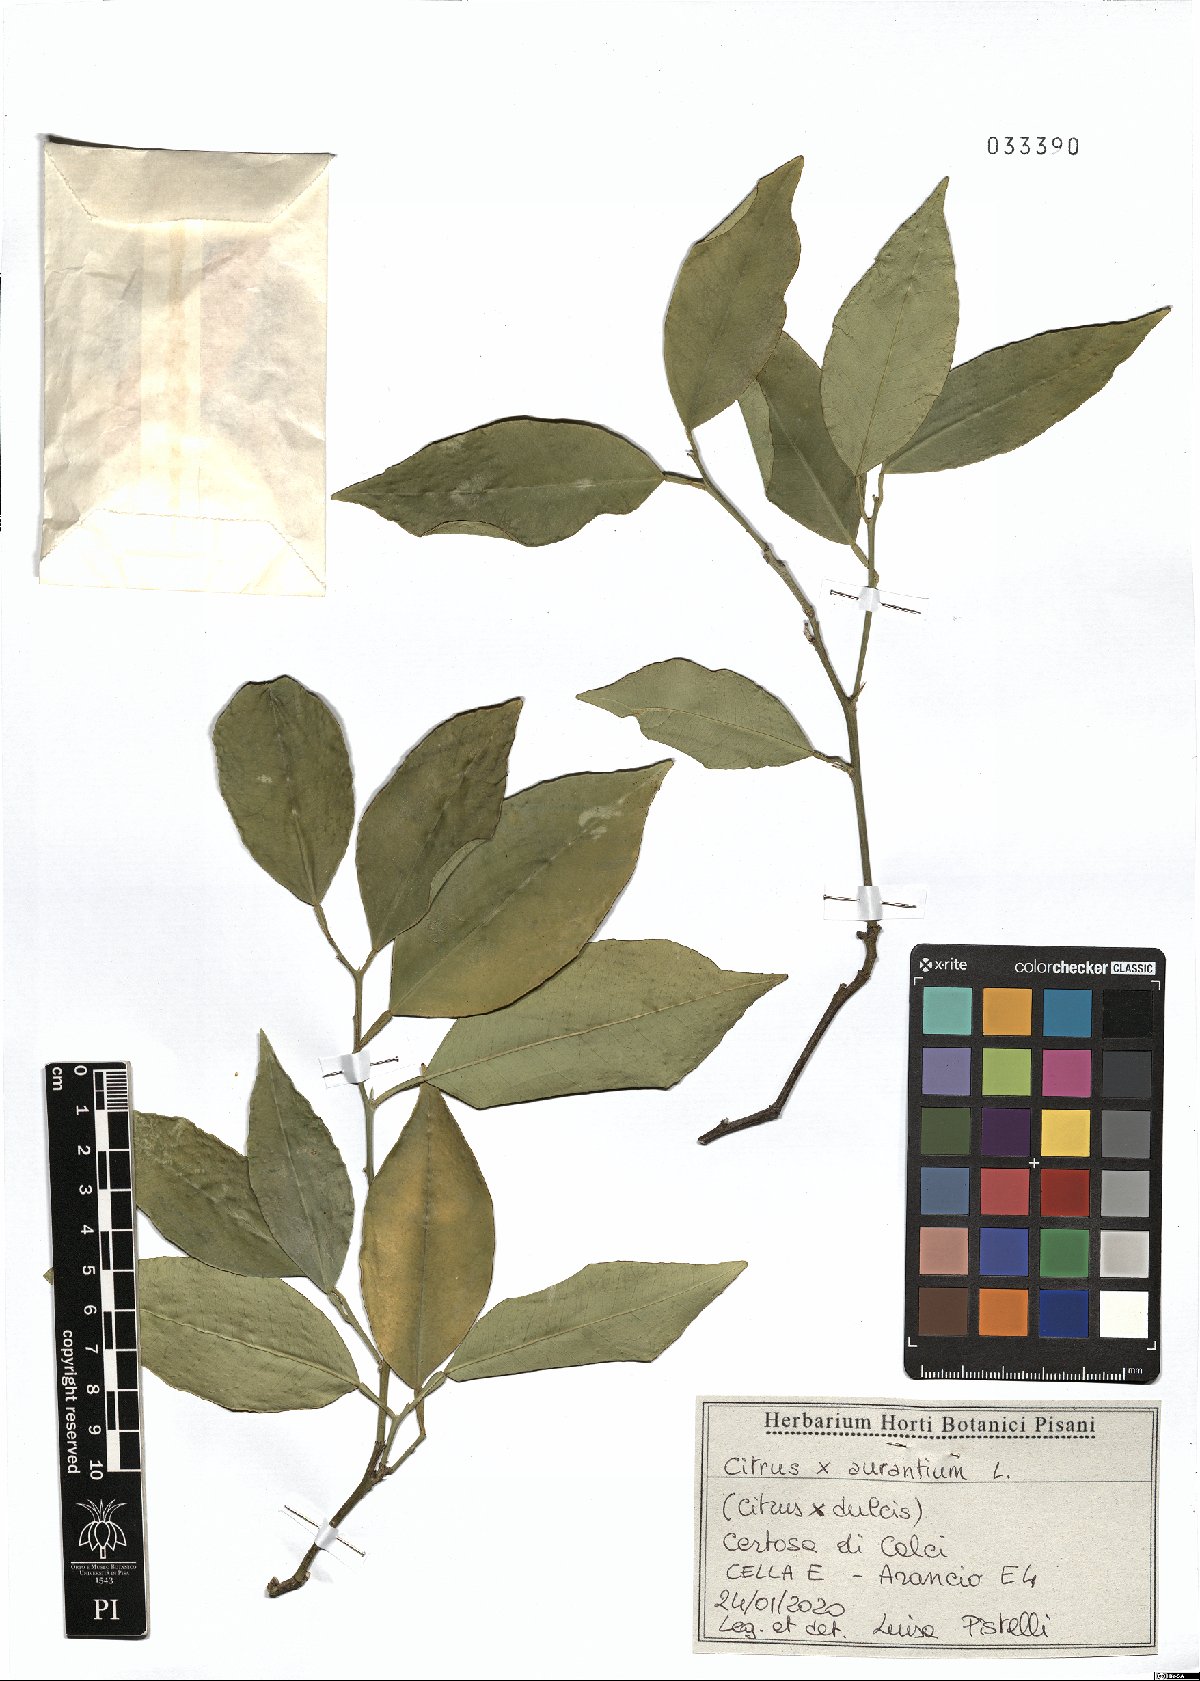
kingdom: Plantae
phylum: Tracheophyta
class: Magnoliopsida
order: Sapindales
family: Rutaceae
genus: Citrus
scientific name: Citrus aurantium
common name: Sour orange
